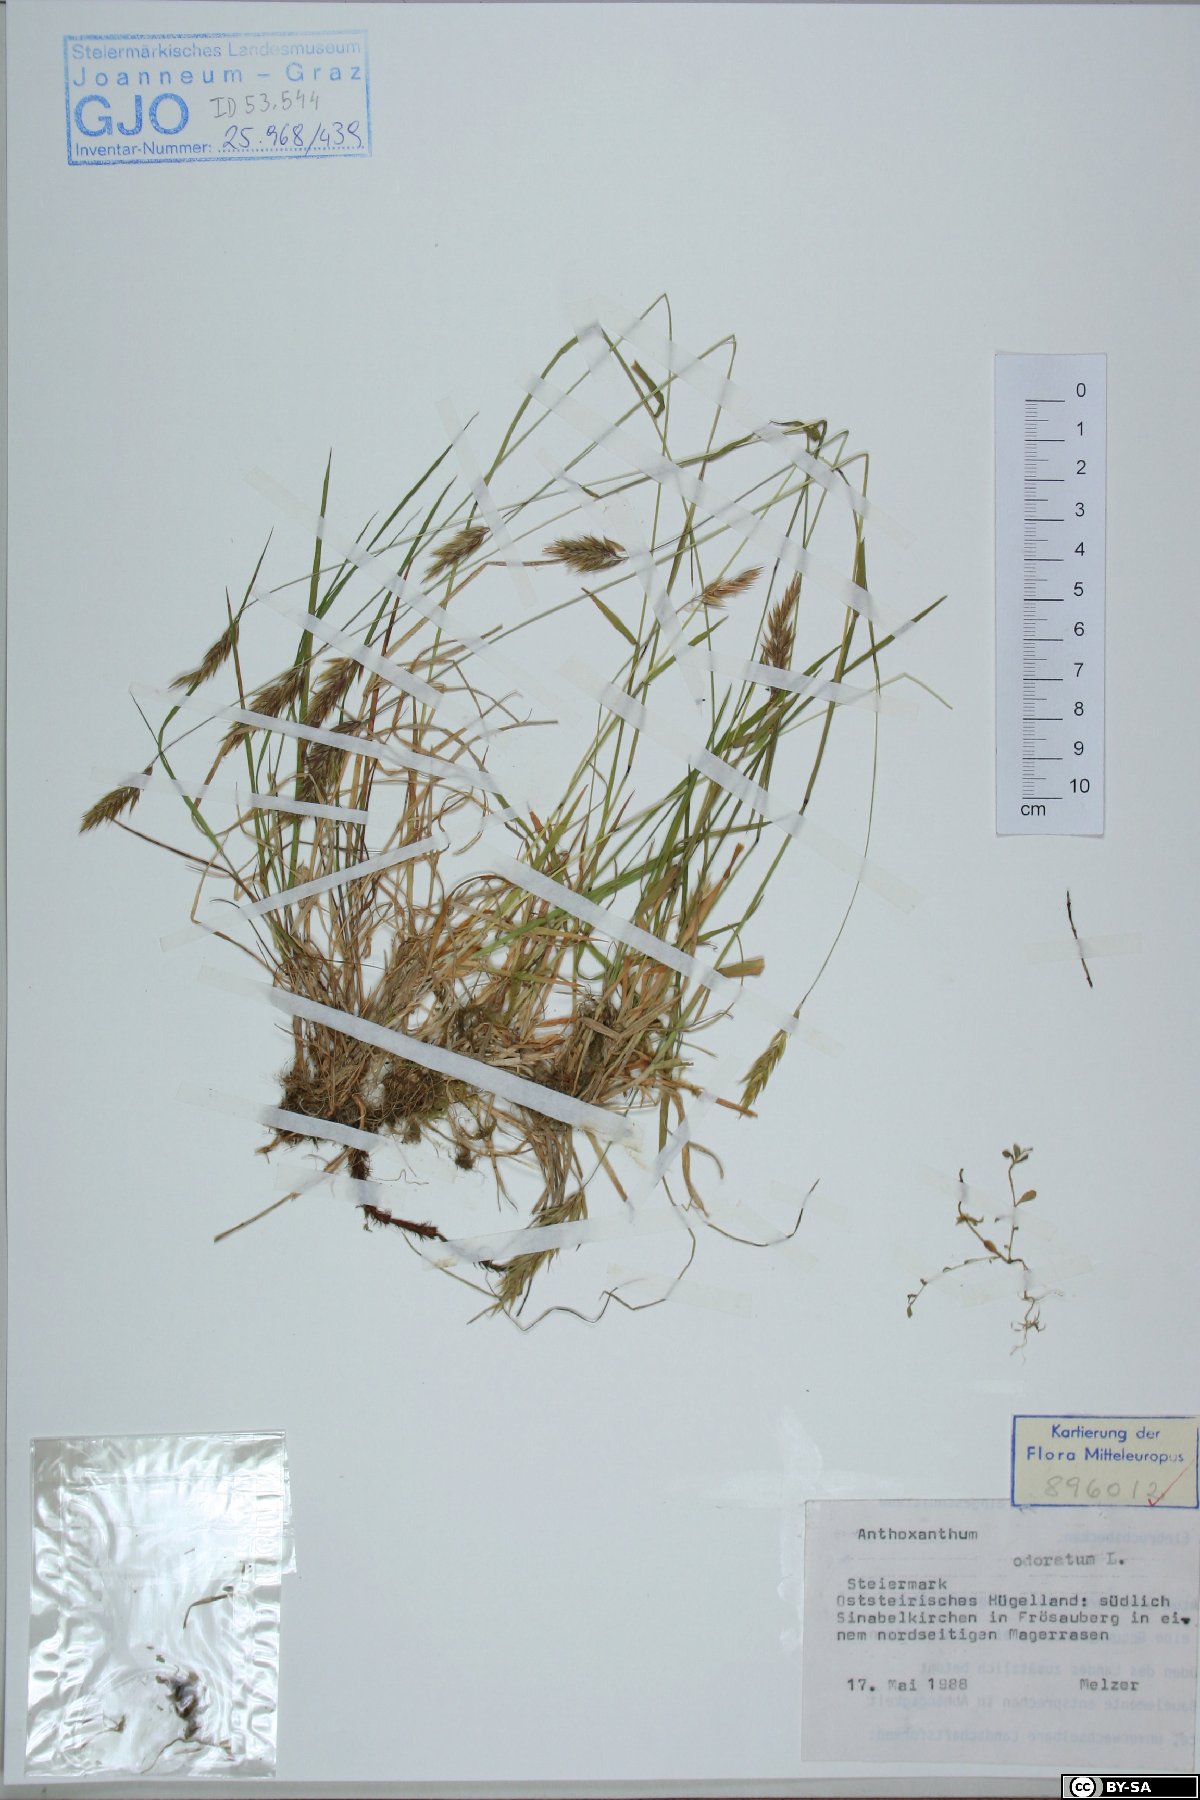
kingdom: Plantae
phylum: Tracheophyta
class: Liliopsida
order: Poales
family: Poaceae
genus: Anthoxanthum
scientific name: Anthoxanthum odoratum
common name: Sweet vernalgrass
